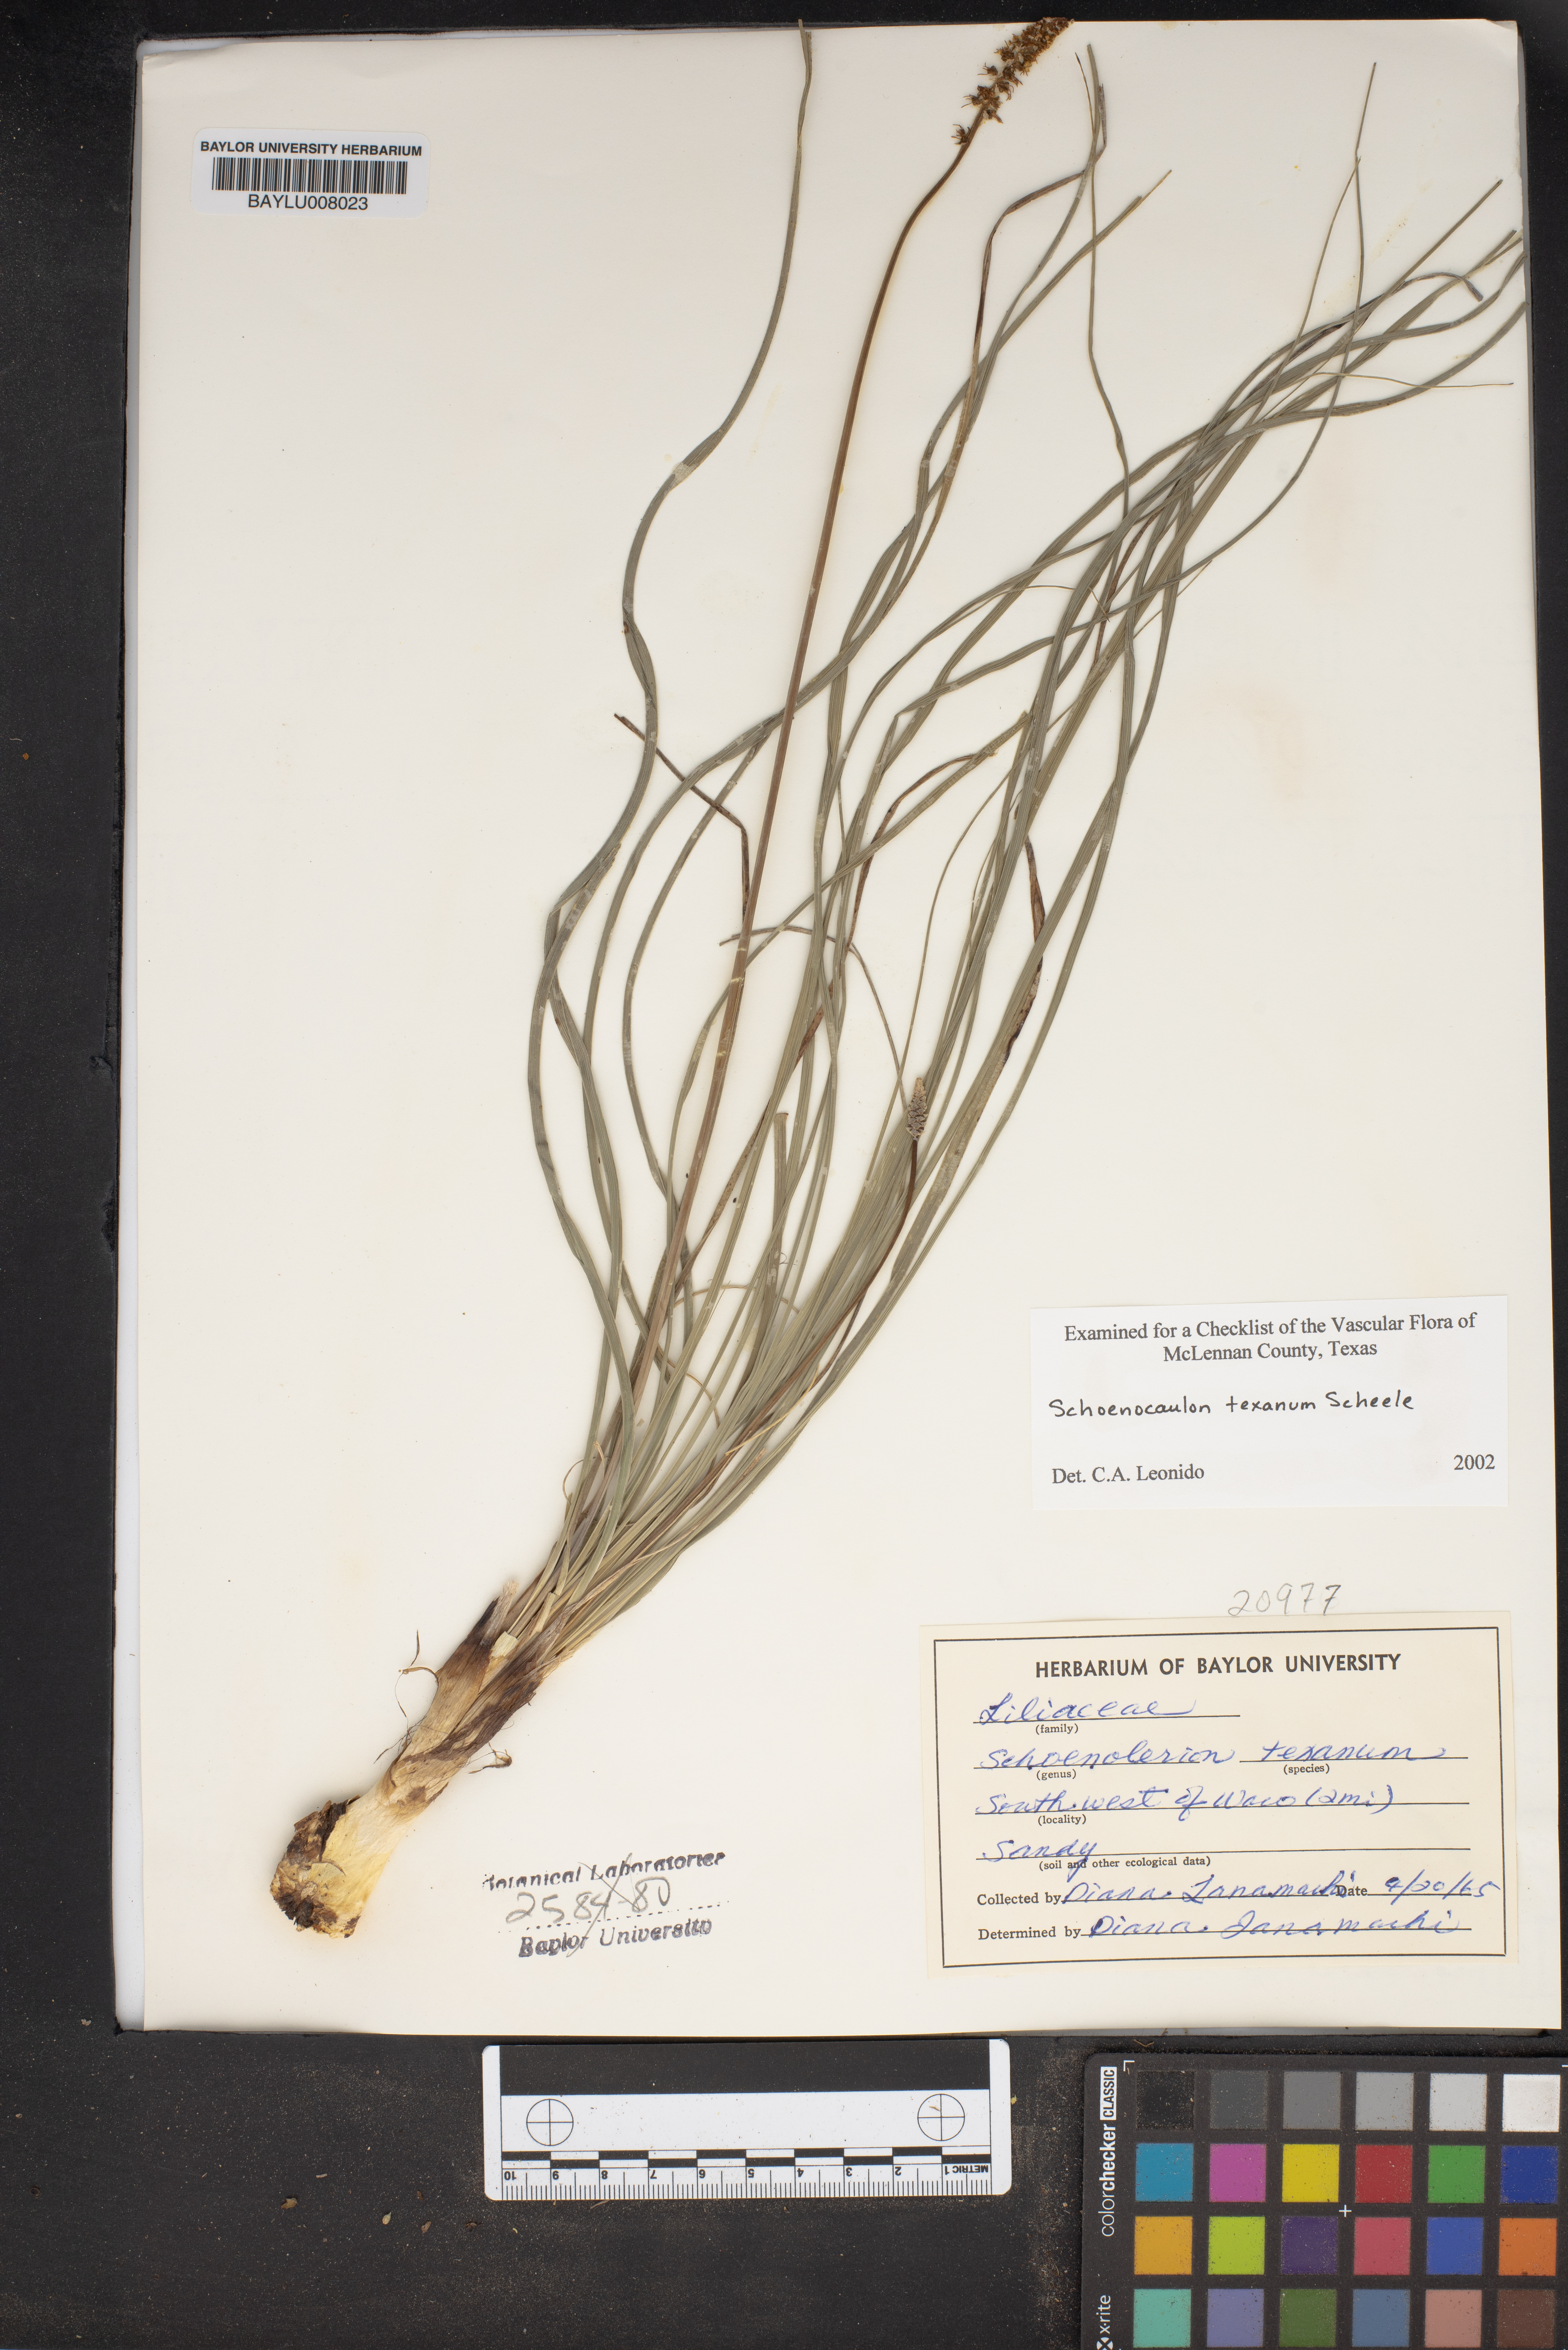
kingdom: Plantae
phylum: Tracheophyta
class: Liliopsida
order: Liliales
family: Melanthiaceae
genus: Schoenocaulon
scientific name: Schoenocaulon texanum
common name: Texas feather-shank
